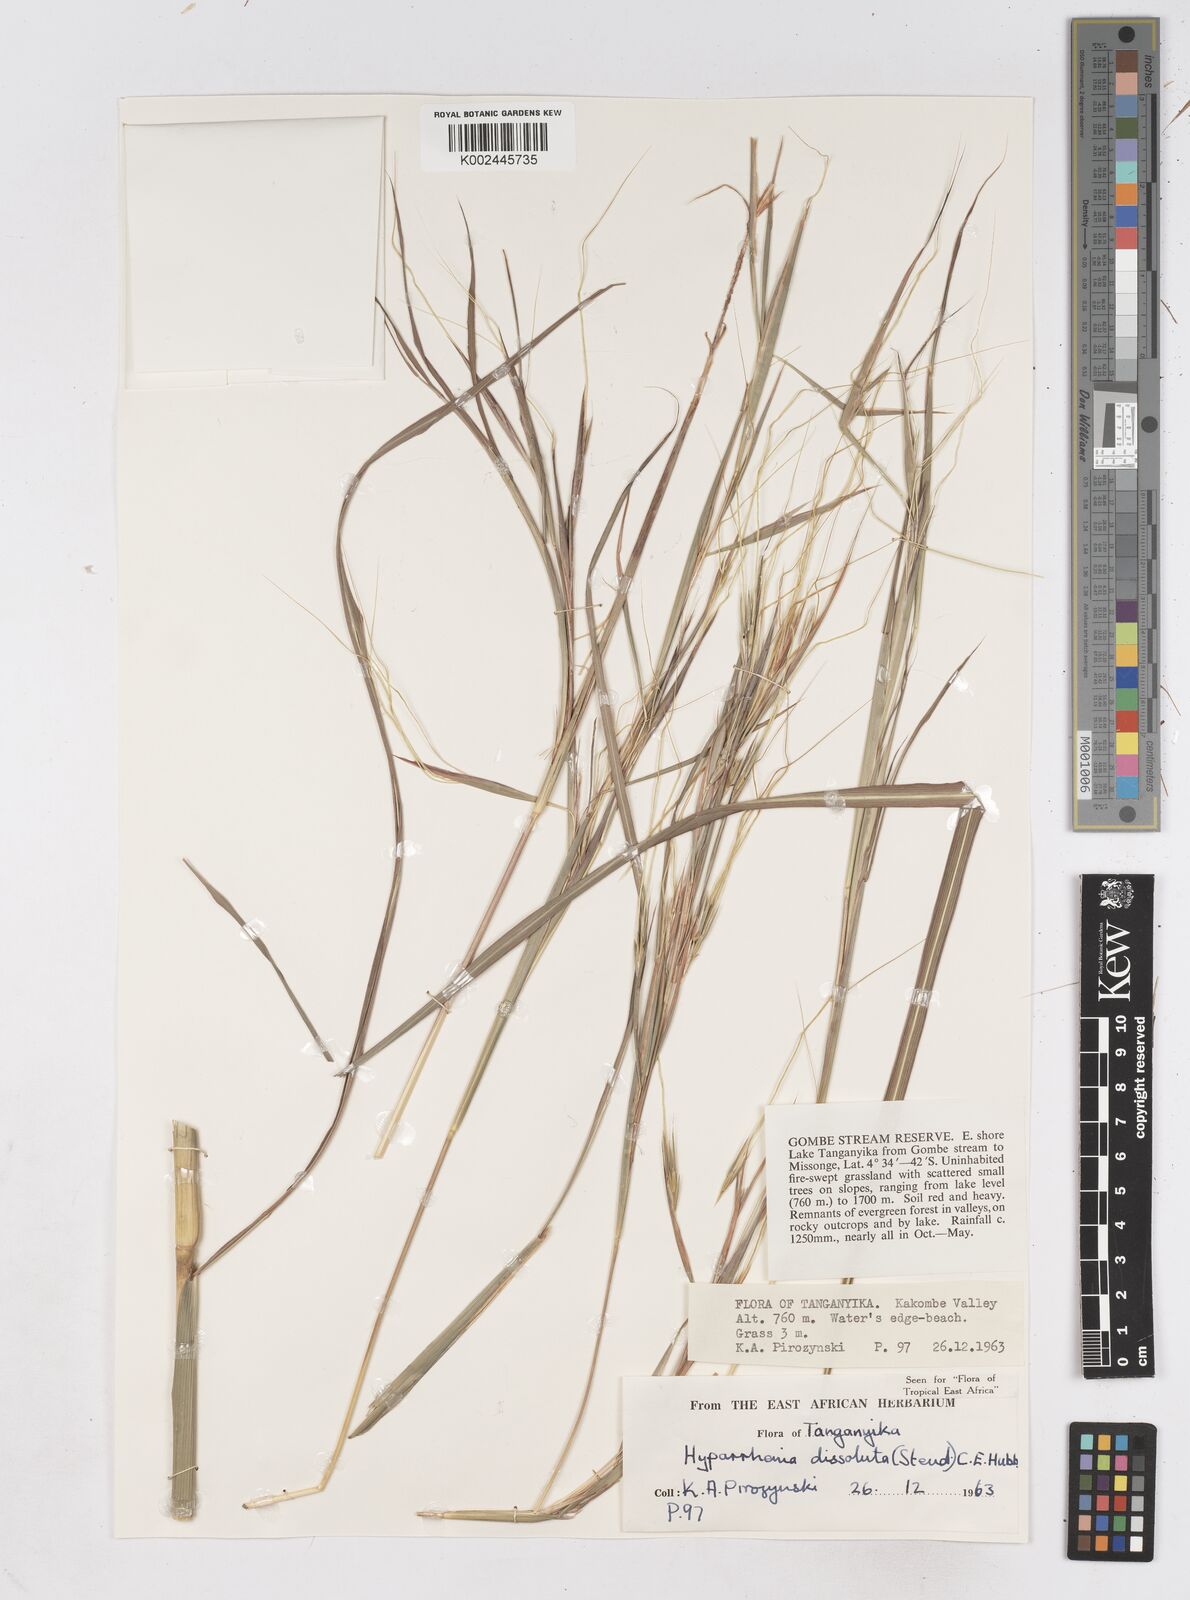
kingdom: Plantae
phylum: Tracheophyta
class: Liliopsida
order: Poales
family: Poaceae
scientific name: Poaceae
